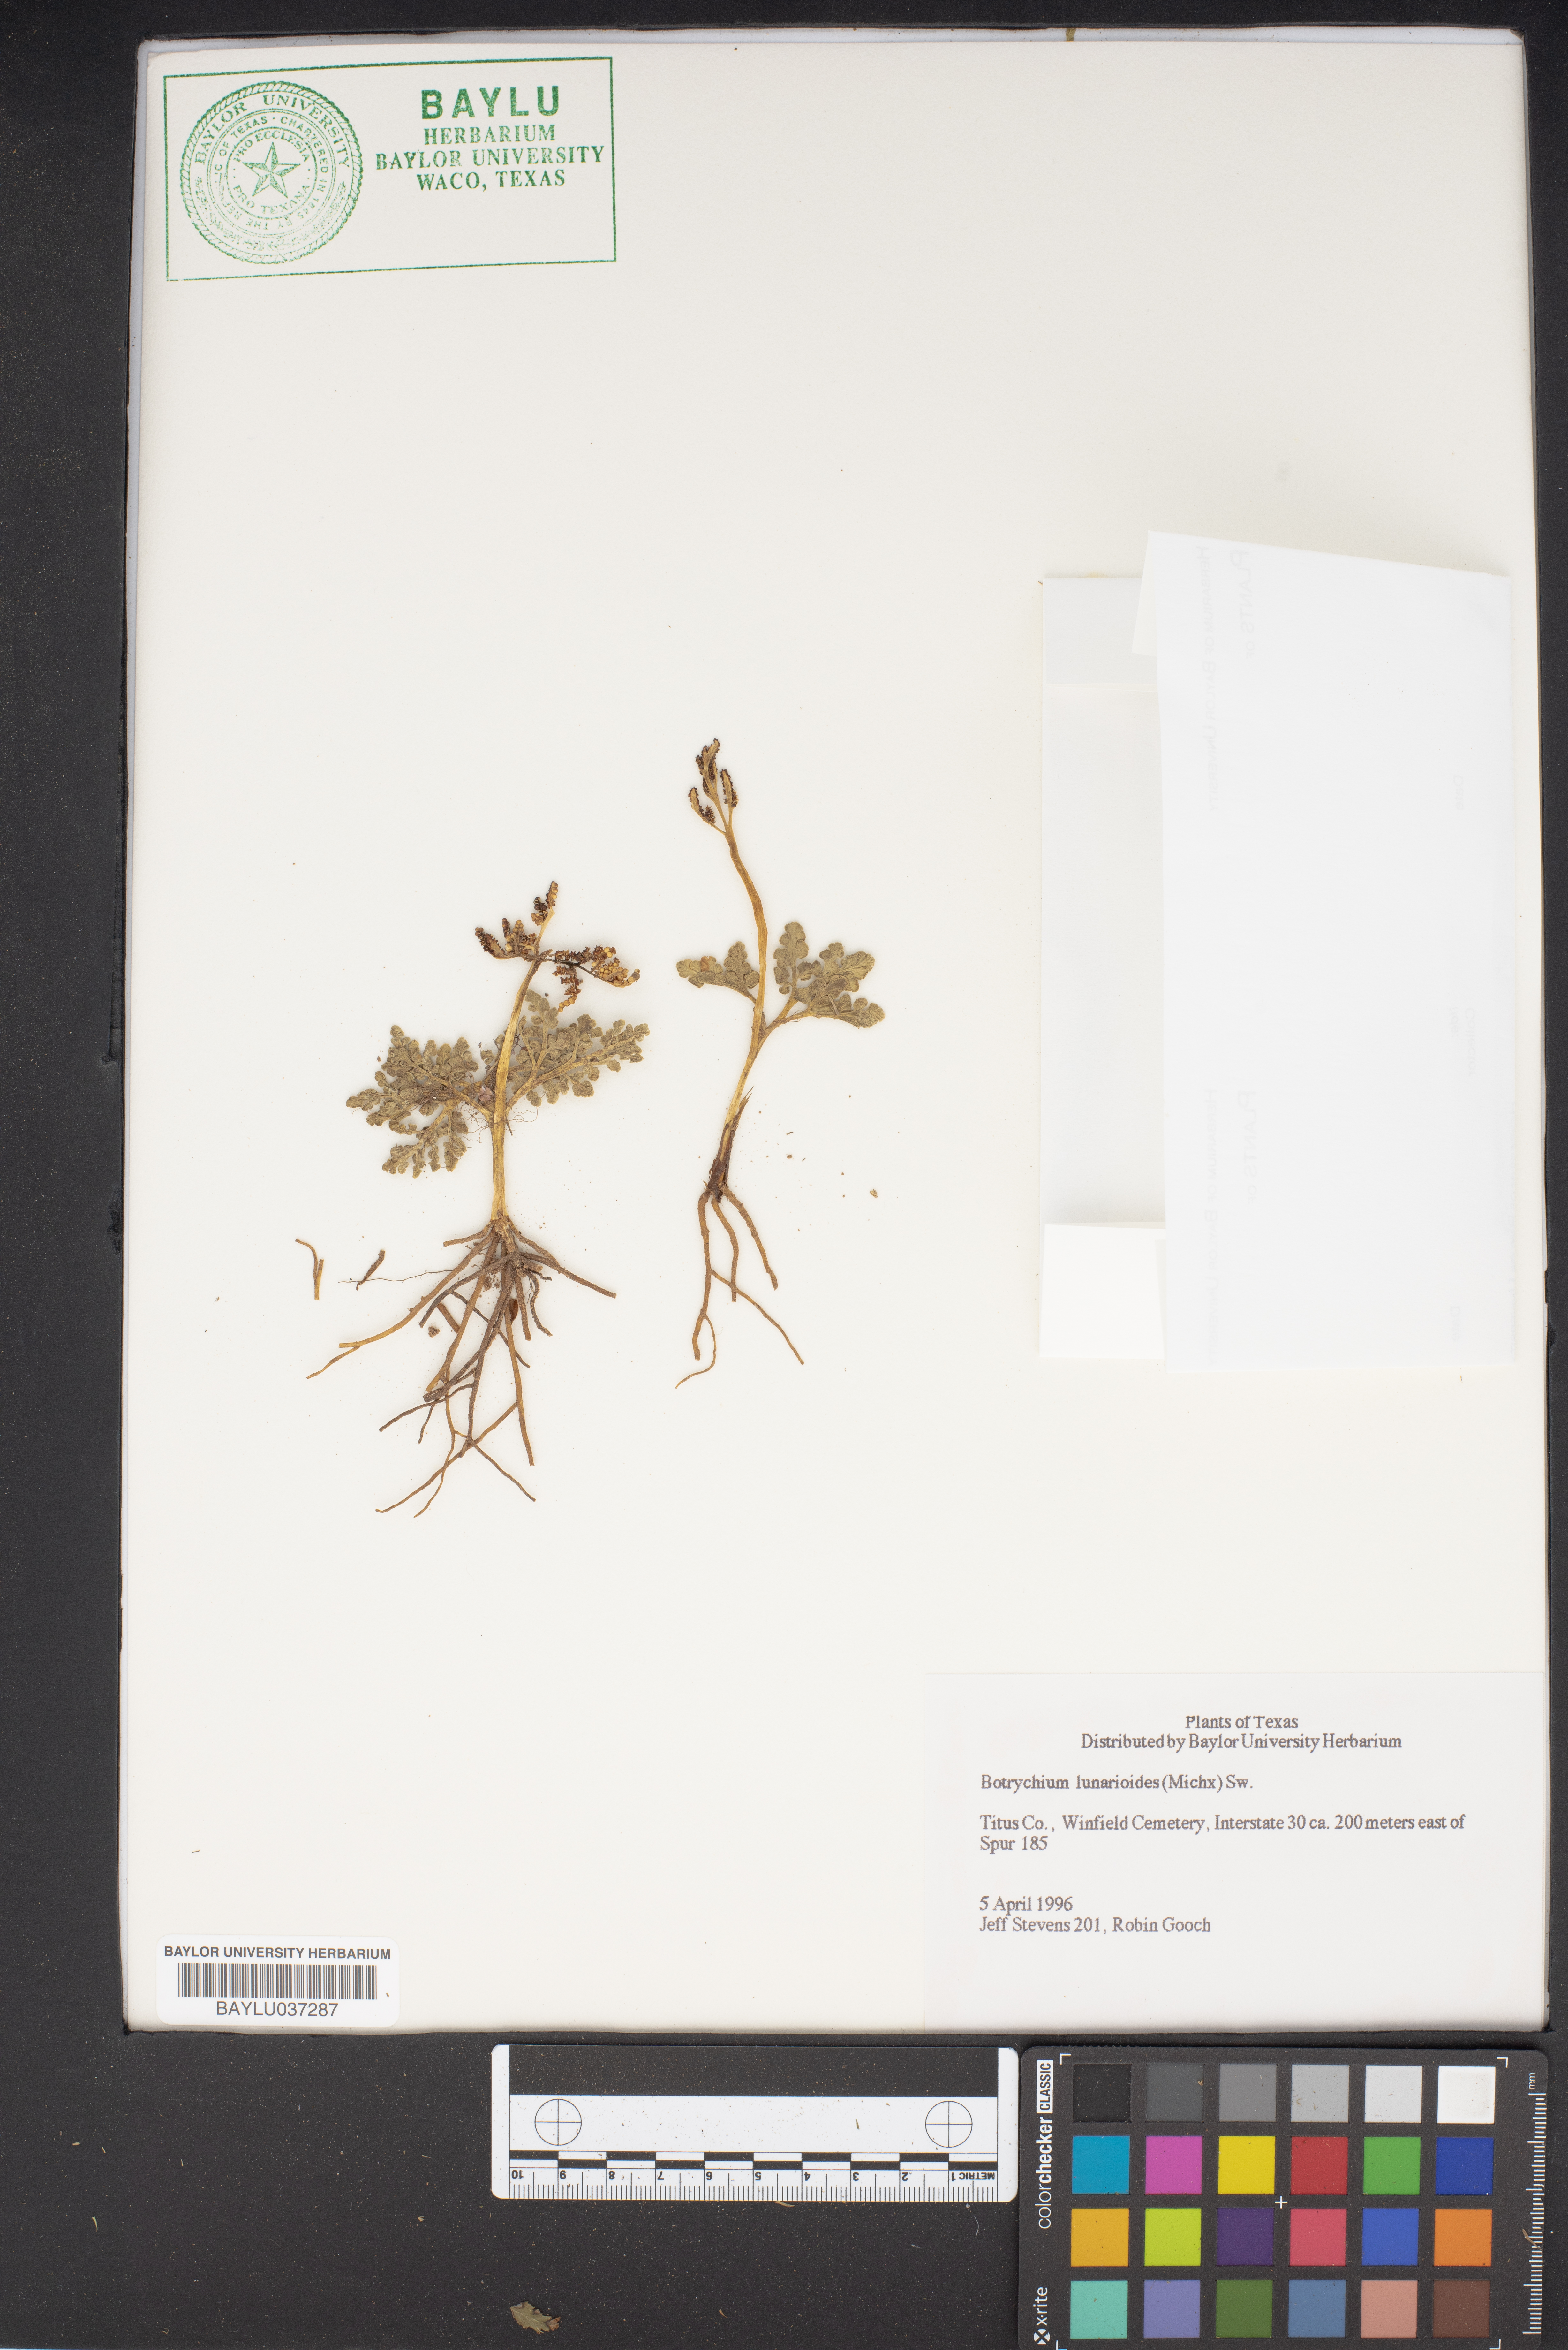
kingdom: Plantae
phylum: Tracheophyta
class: Polypodiopsida
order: Ophioglossales
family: Ophioglossaceae
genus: Sceptridium
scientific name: Sceptridium lunarioides
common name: Prostrate grapefern
